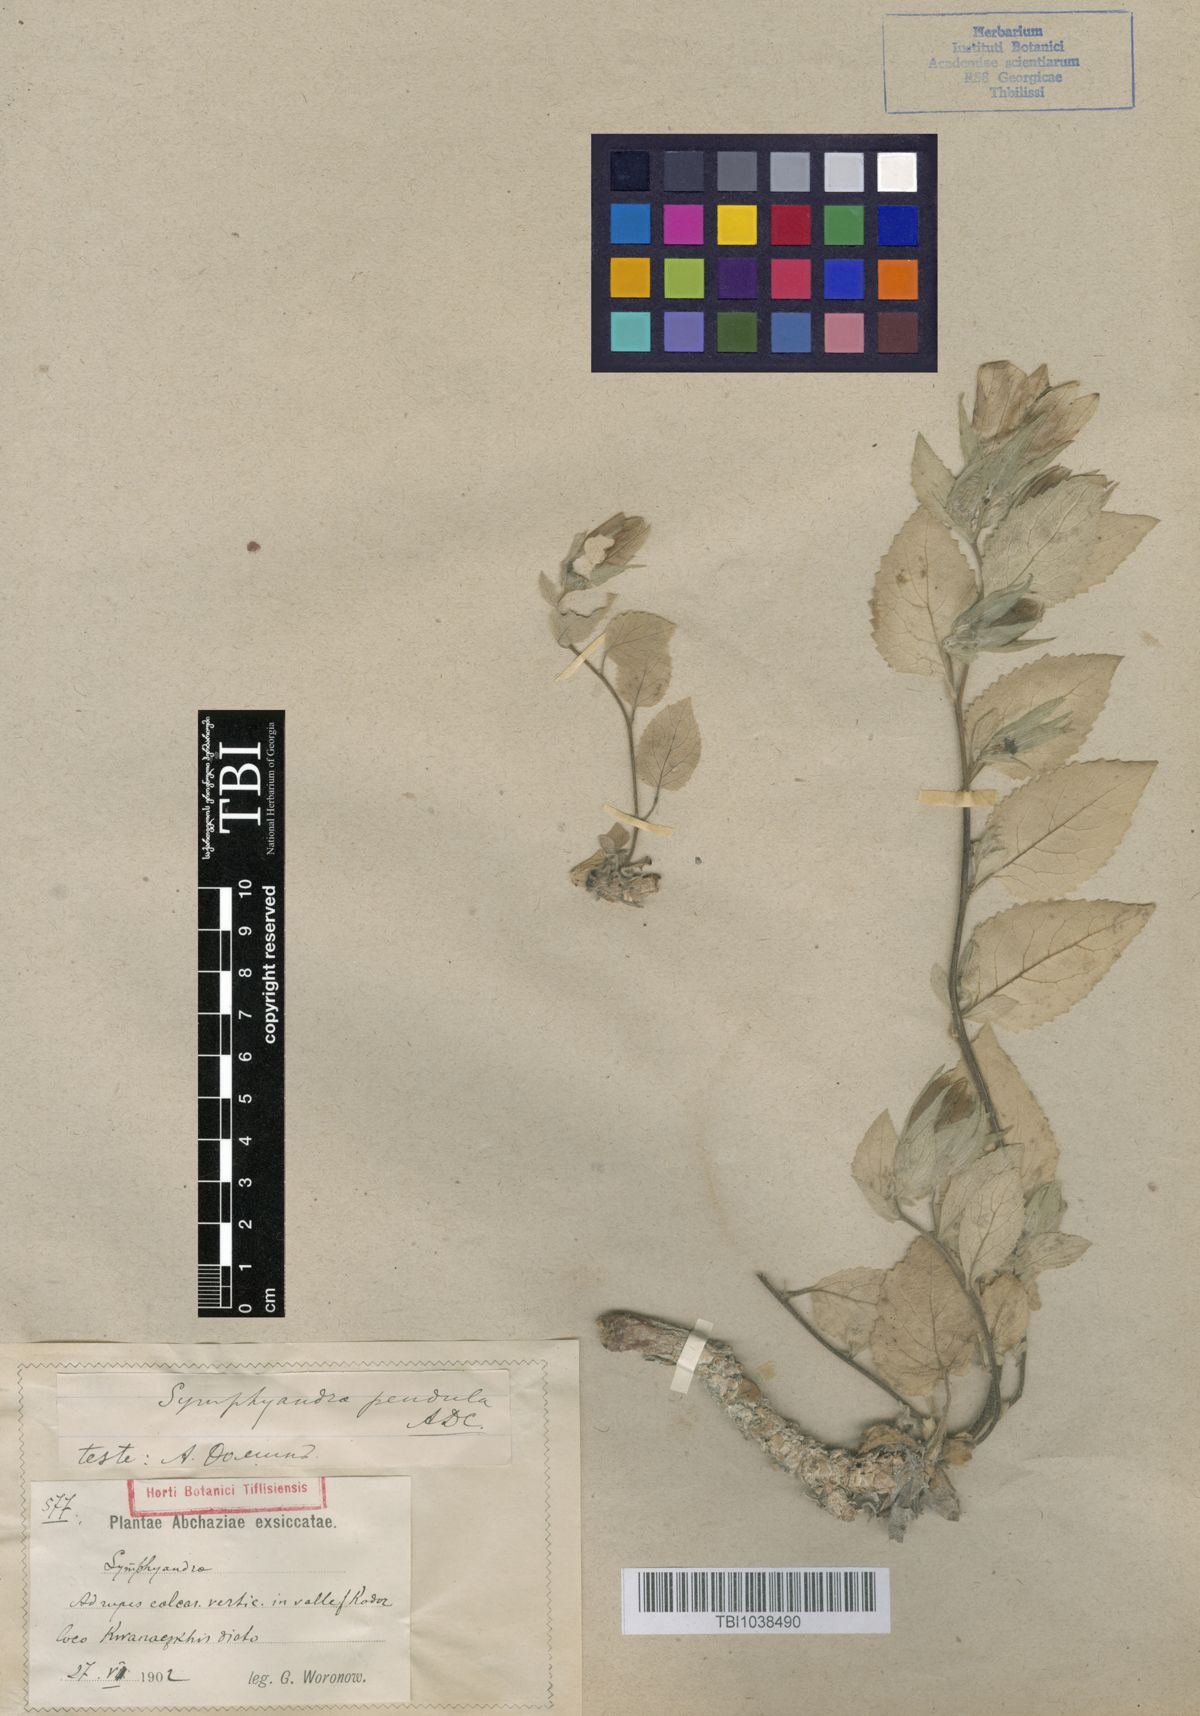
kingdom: Plantae
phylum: Tracheophyta
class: Magnoliopsida
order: Asterales
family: Campanulaceae
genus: Campanula
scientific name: Campanula pendula
